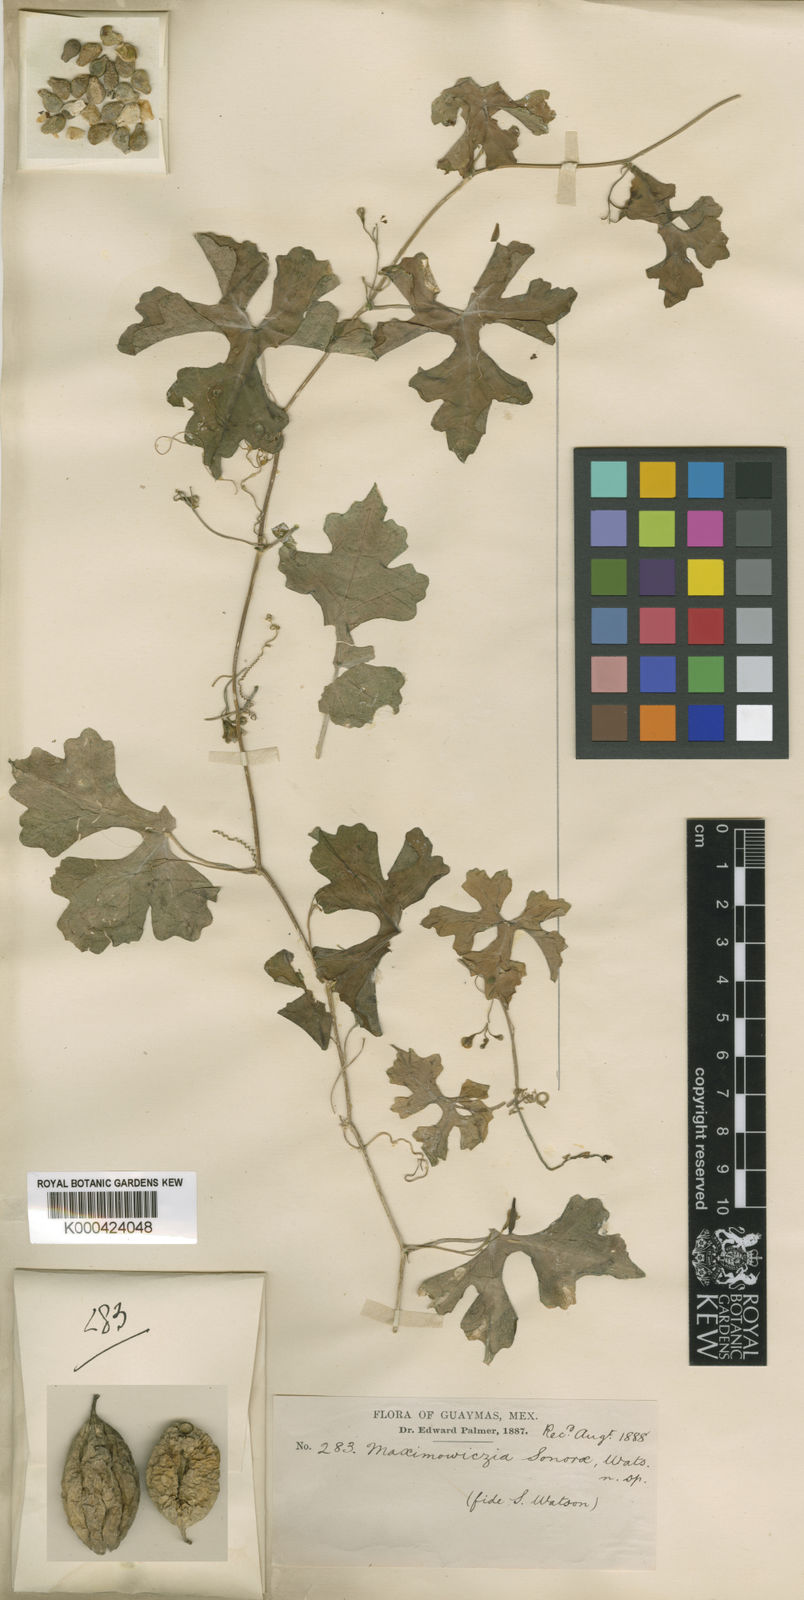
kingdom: Plantae
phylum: Tracheophyta
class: Magnoliopsida
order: Cucurbitales
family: Cucurbitaceae
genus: Ibervillea
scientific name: Ibervillea sonorae
